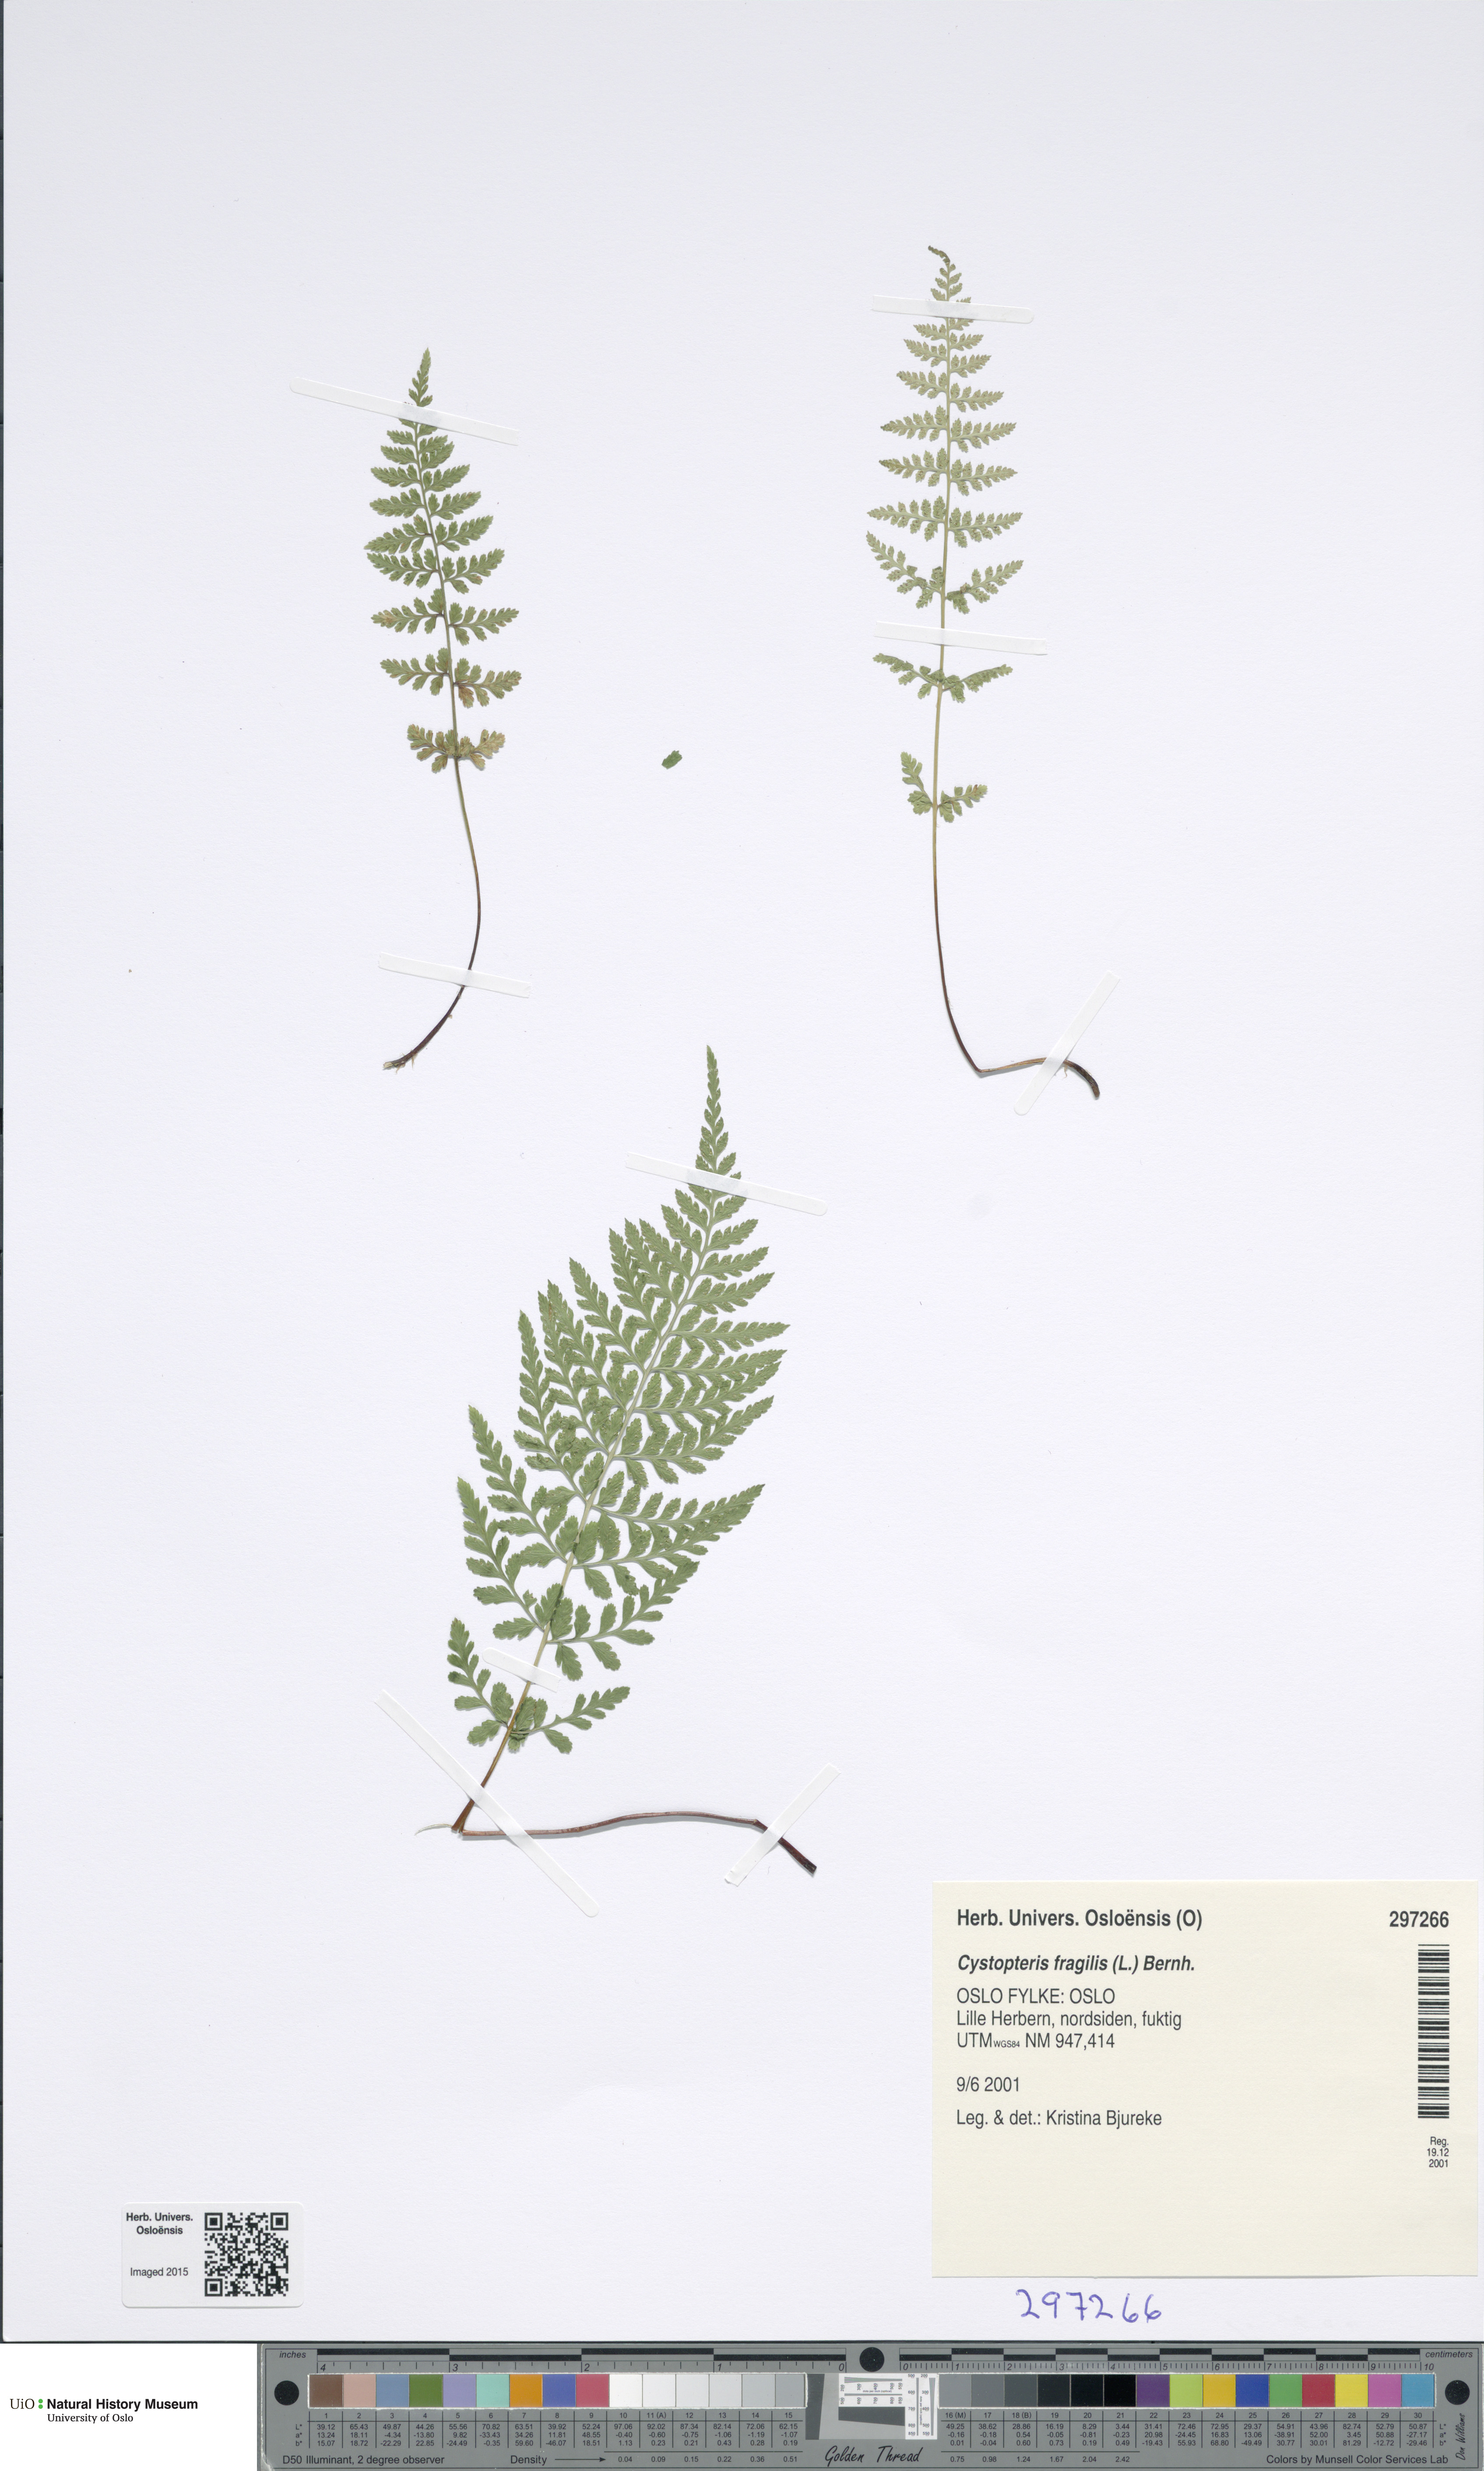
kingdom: Plantae
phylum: Tracheophyta
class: Polypodiopsida
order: Polypodiales
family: Cystopteridaceae
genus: Cystopteris
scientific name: Cystopteris fragilis
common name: Brittle bladder fern
